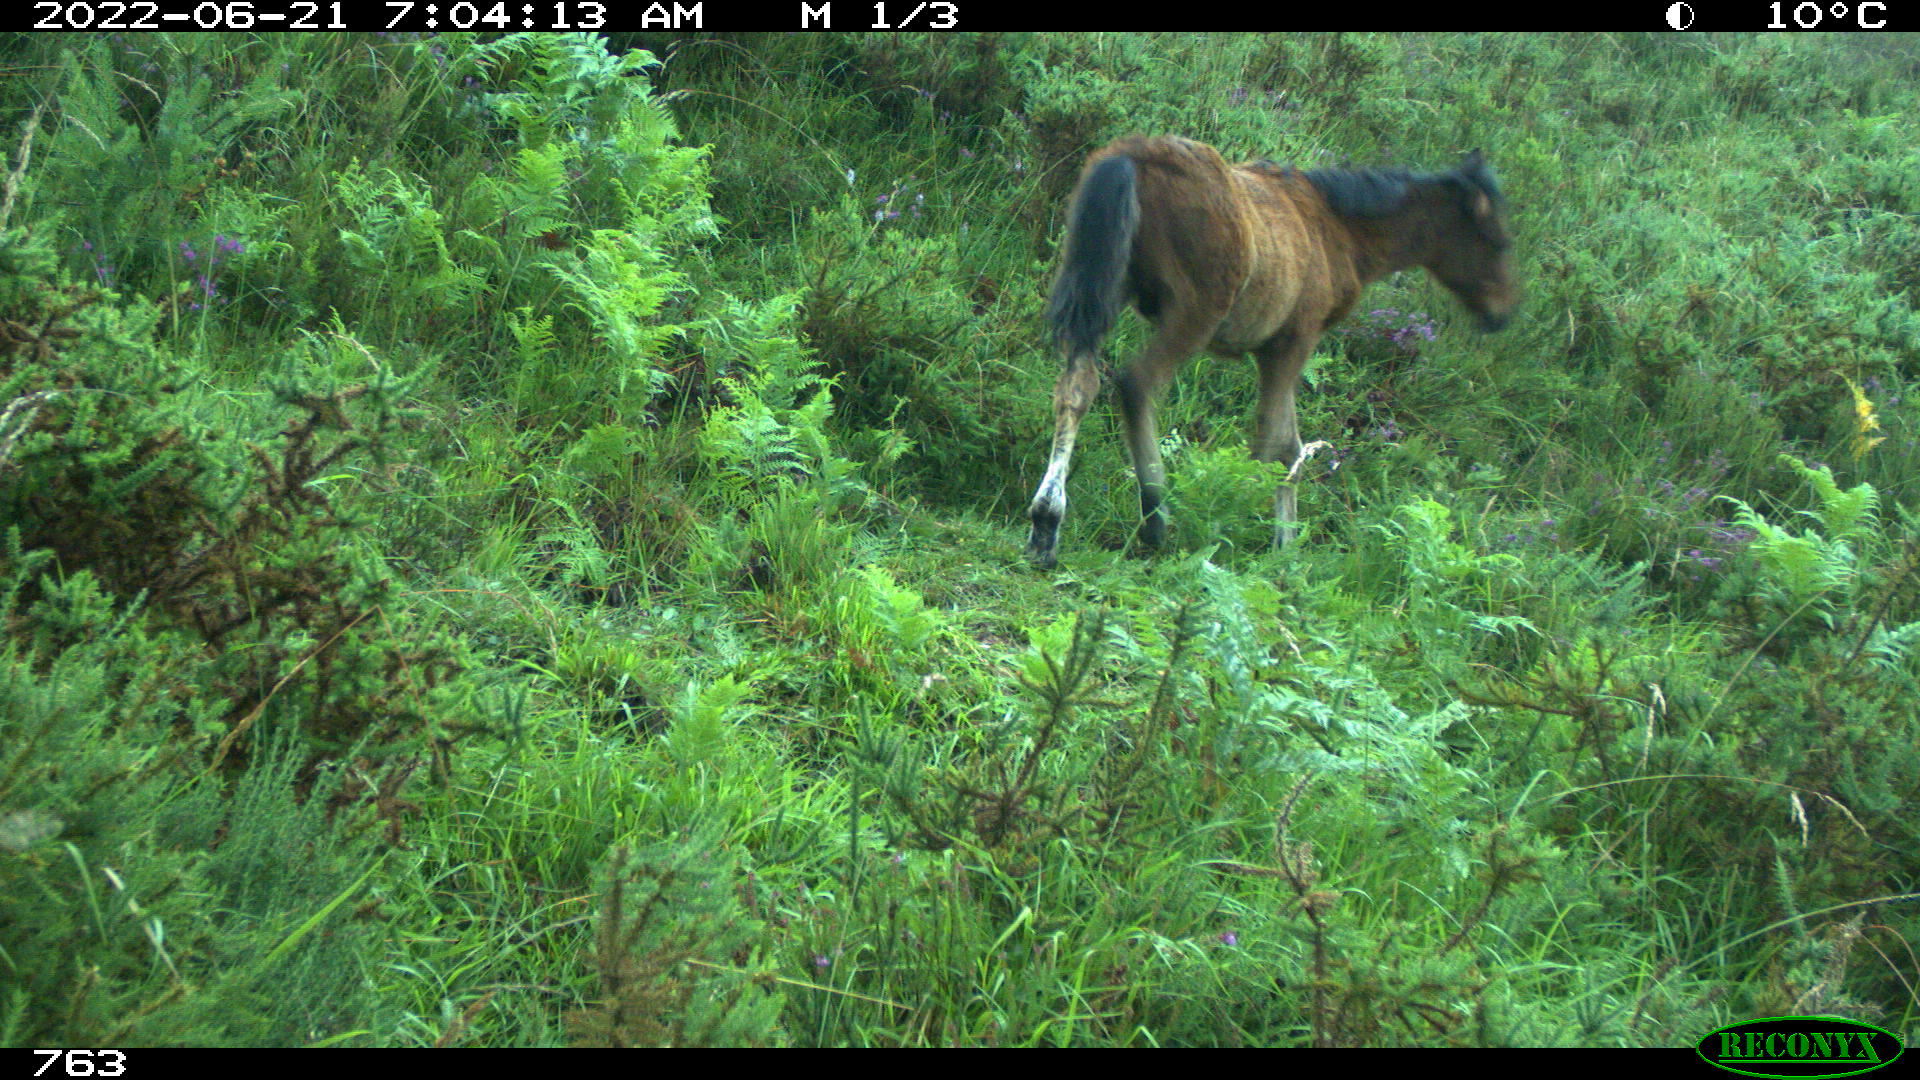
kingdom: Animalia
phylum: Chordata
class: Mammalia
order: Perissodactyla
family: Equidae
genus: Equus
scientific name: Equus caballus
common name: Horse
